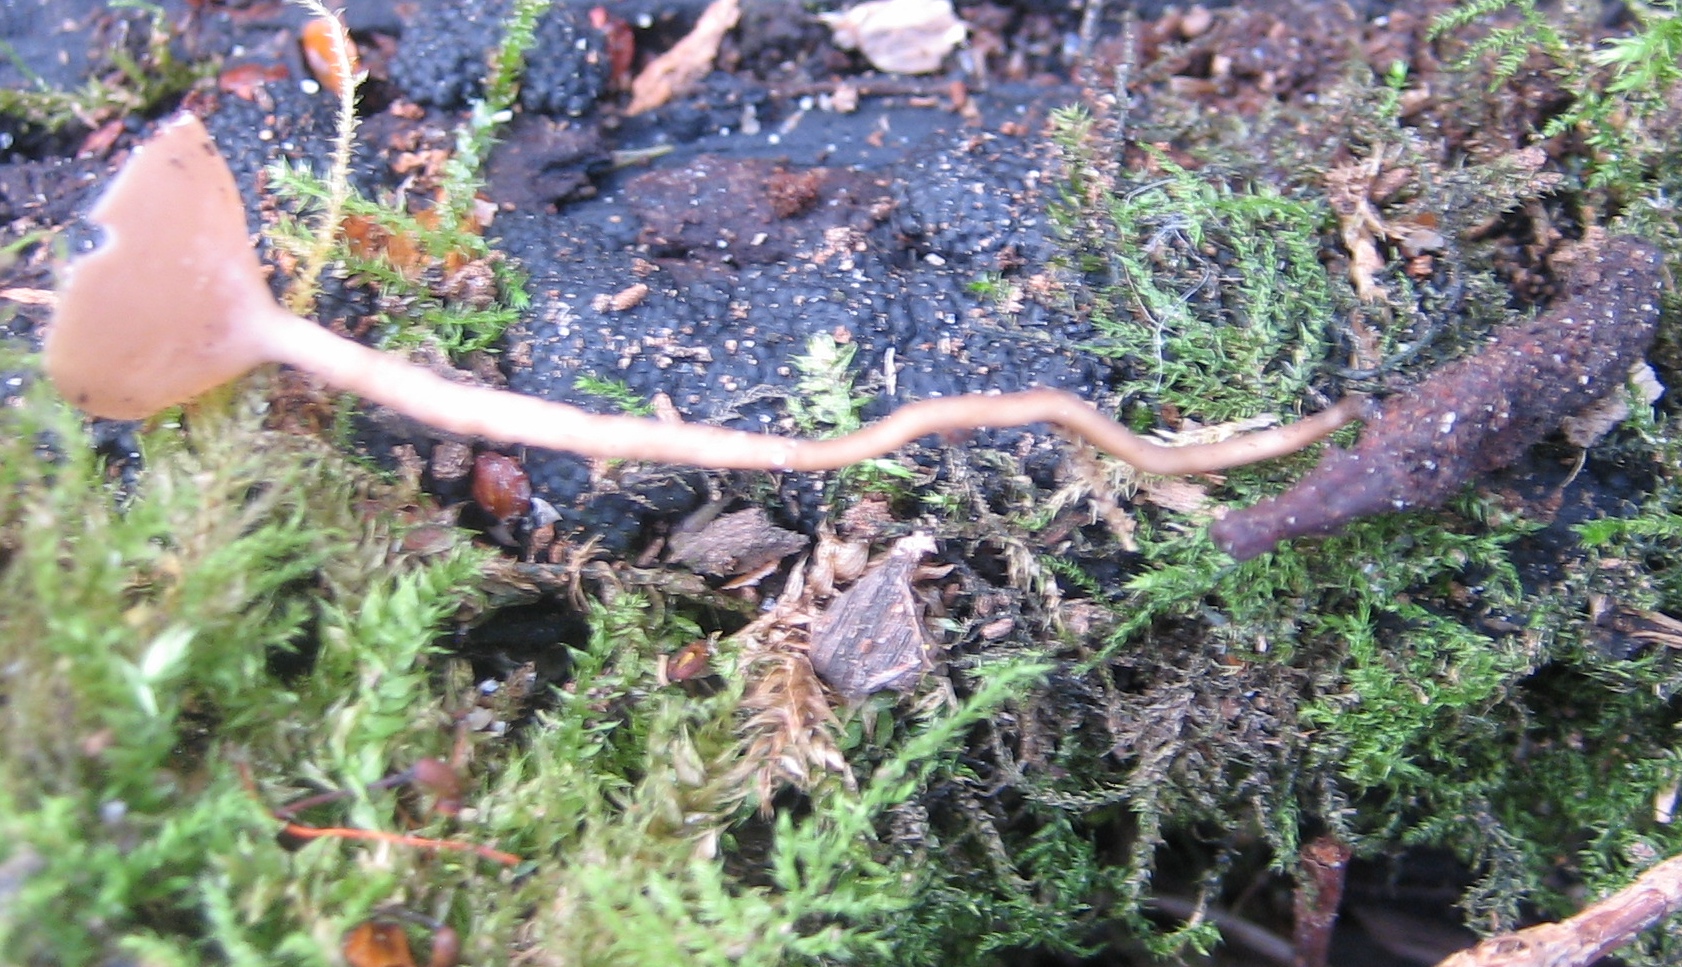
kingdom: Fungi
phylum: Ascomycota
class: Leotiomycetes
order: Helotiales
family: Sclerotiniaceae
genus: Ciboria
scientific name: Ciboria amentacea
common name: ellerakle-knoldskive
